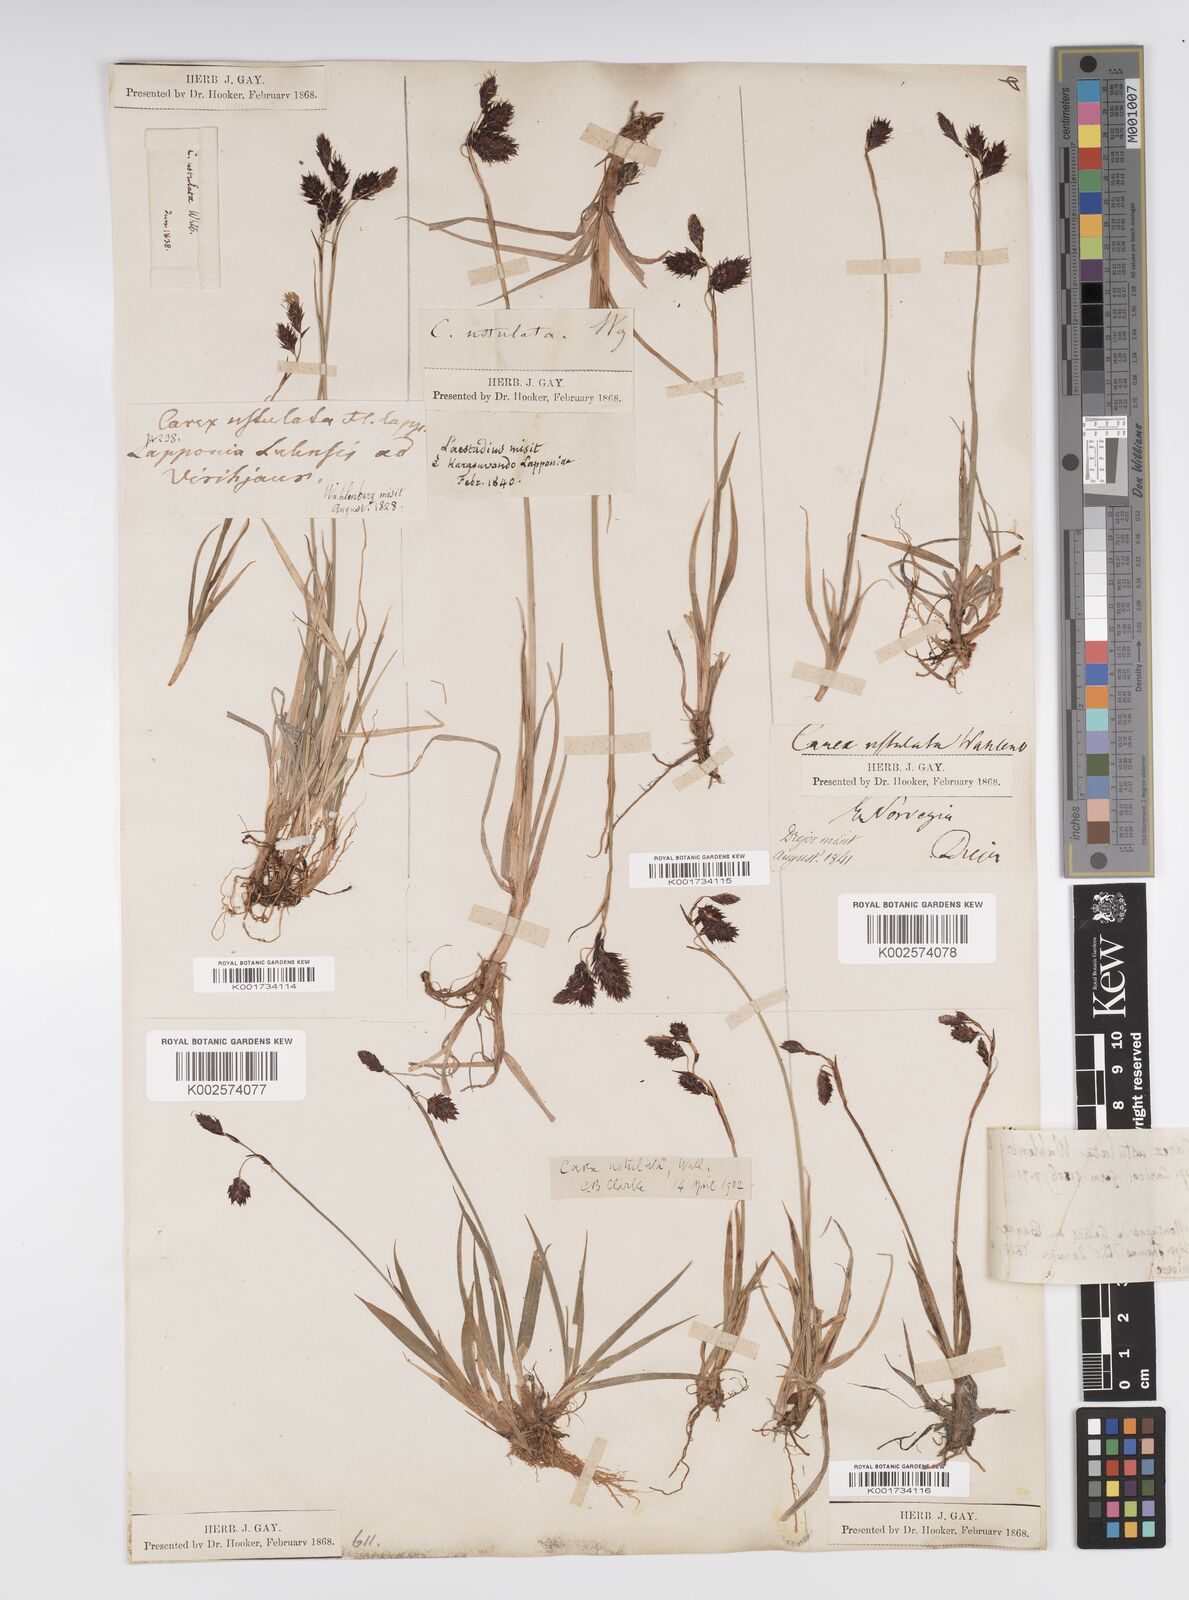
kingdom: Plantae
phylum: Tracheophyta
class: Liliopsida
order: Poales
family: Cyperaceae
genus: Carex
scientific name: Carex atrofusca
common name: Scorched alpine-sedge
